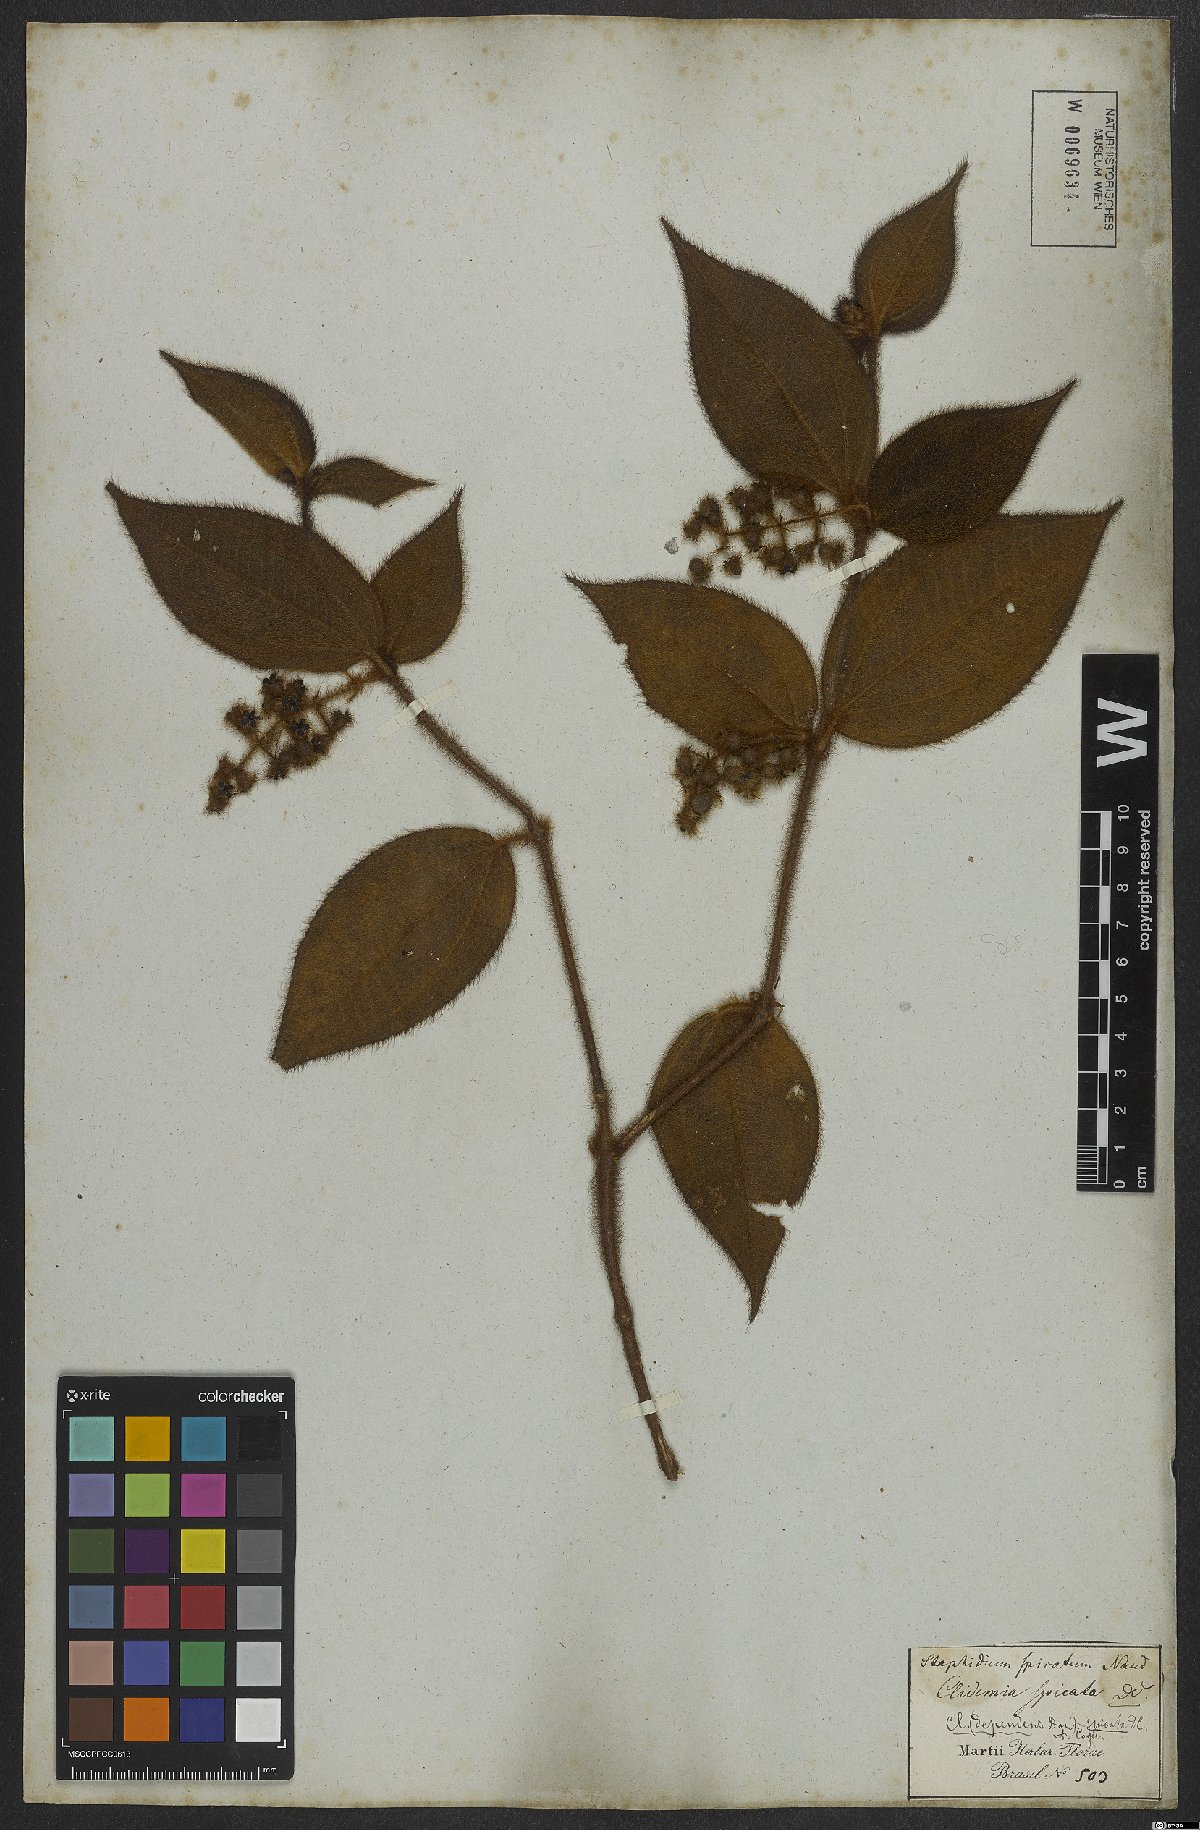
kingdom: Plantae
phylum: Tracheophyta
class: Magnoliopsida
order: Myrtales
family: Melastomataceae
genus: Miconia
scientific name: Miconia dependens
